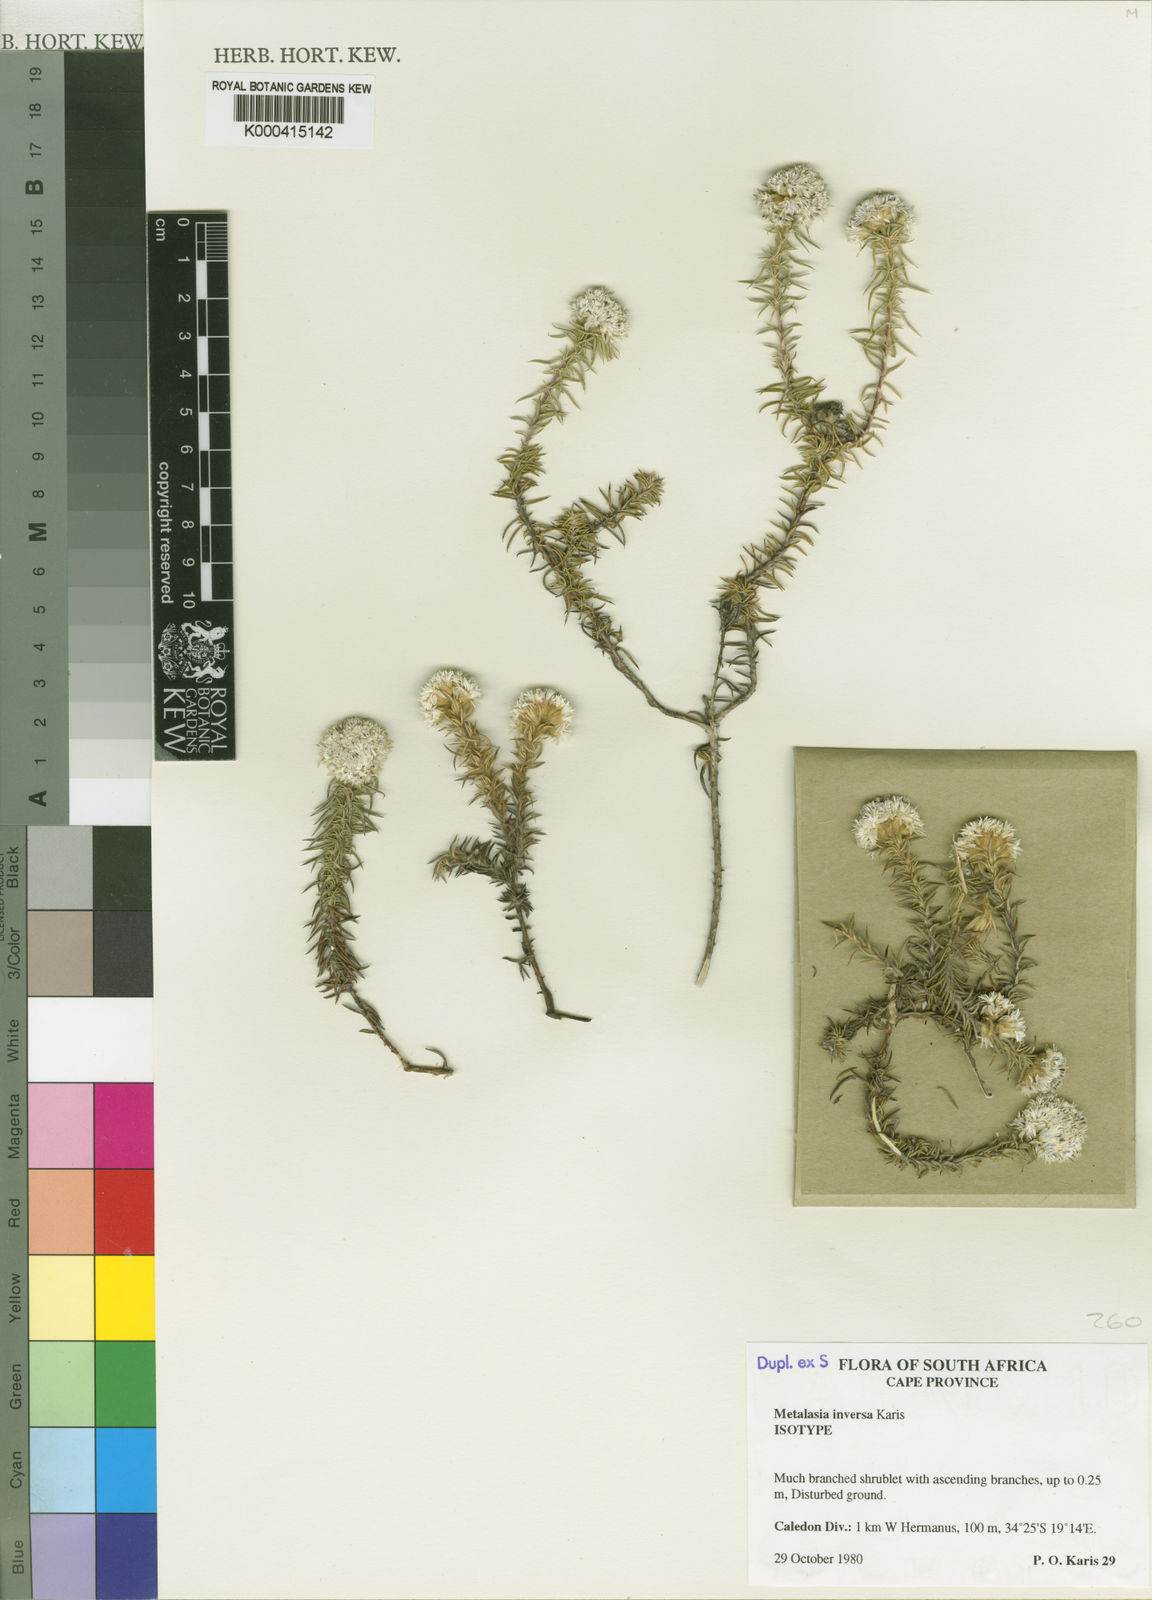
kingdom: Plantae
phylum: Tracheophyta
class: Magnoliopsida
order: Asterales
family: Asteraceae
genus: Metalasia
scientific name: Metalasia inversa
